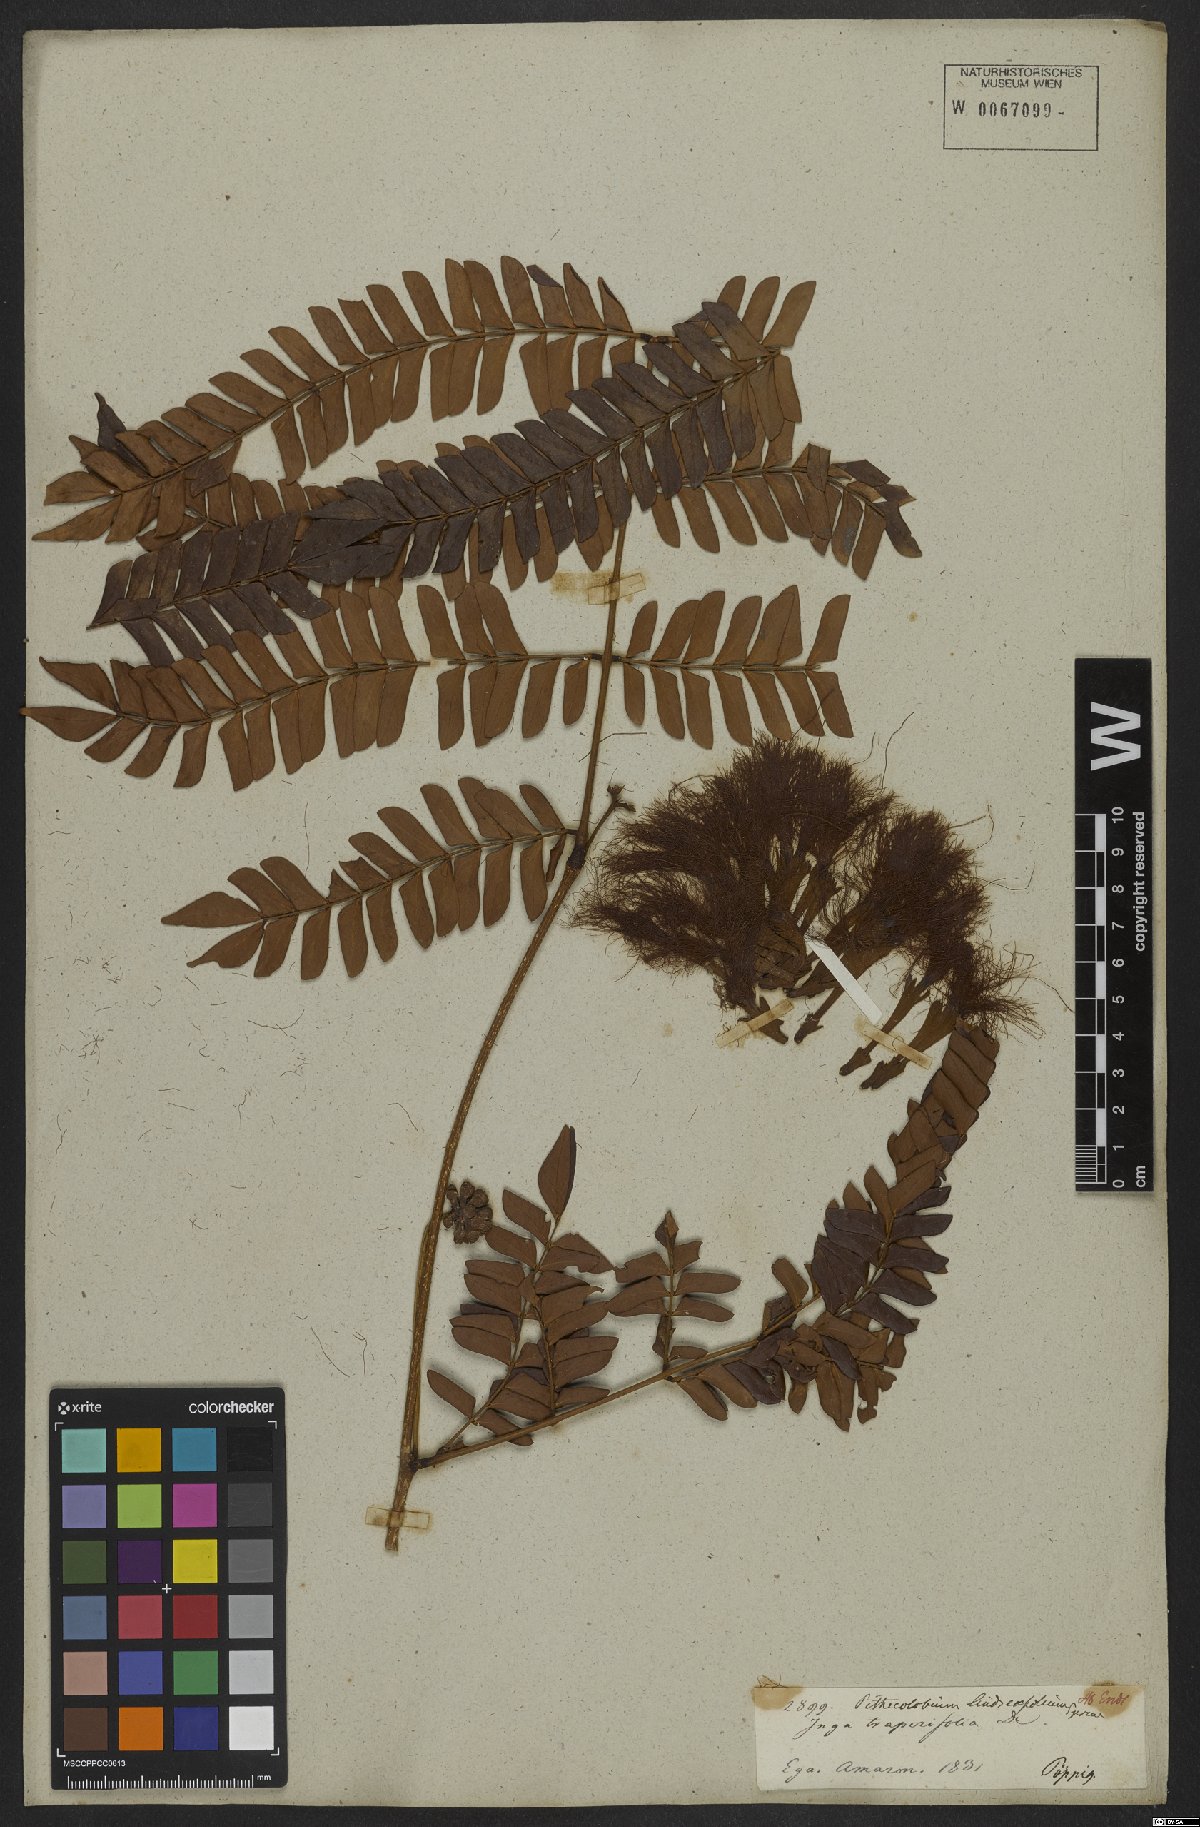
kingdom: Plantae
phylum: Tracheophyta
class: Magnoliopsida
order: Fabales
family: Fabaceae
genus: Macrosamanea
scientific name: Macrosamanea discolor
